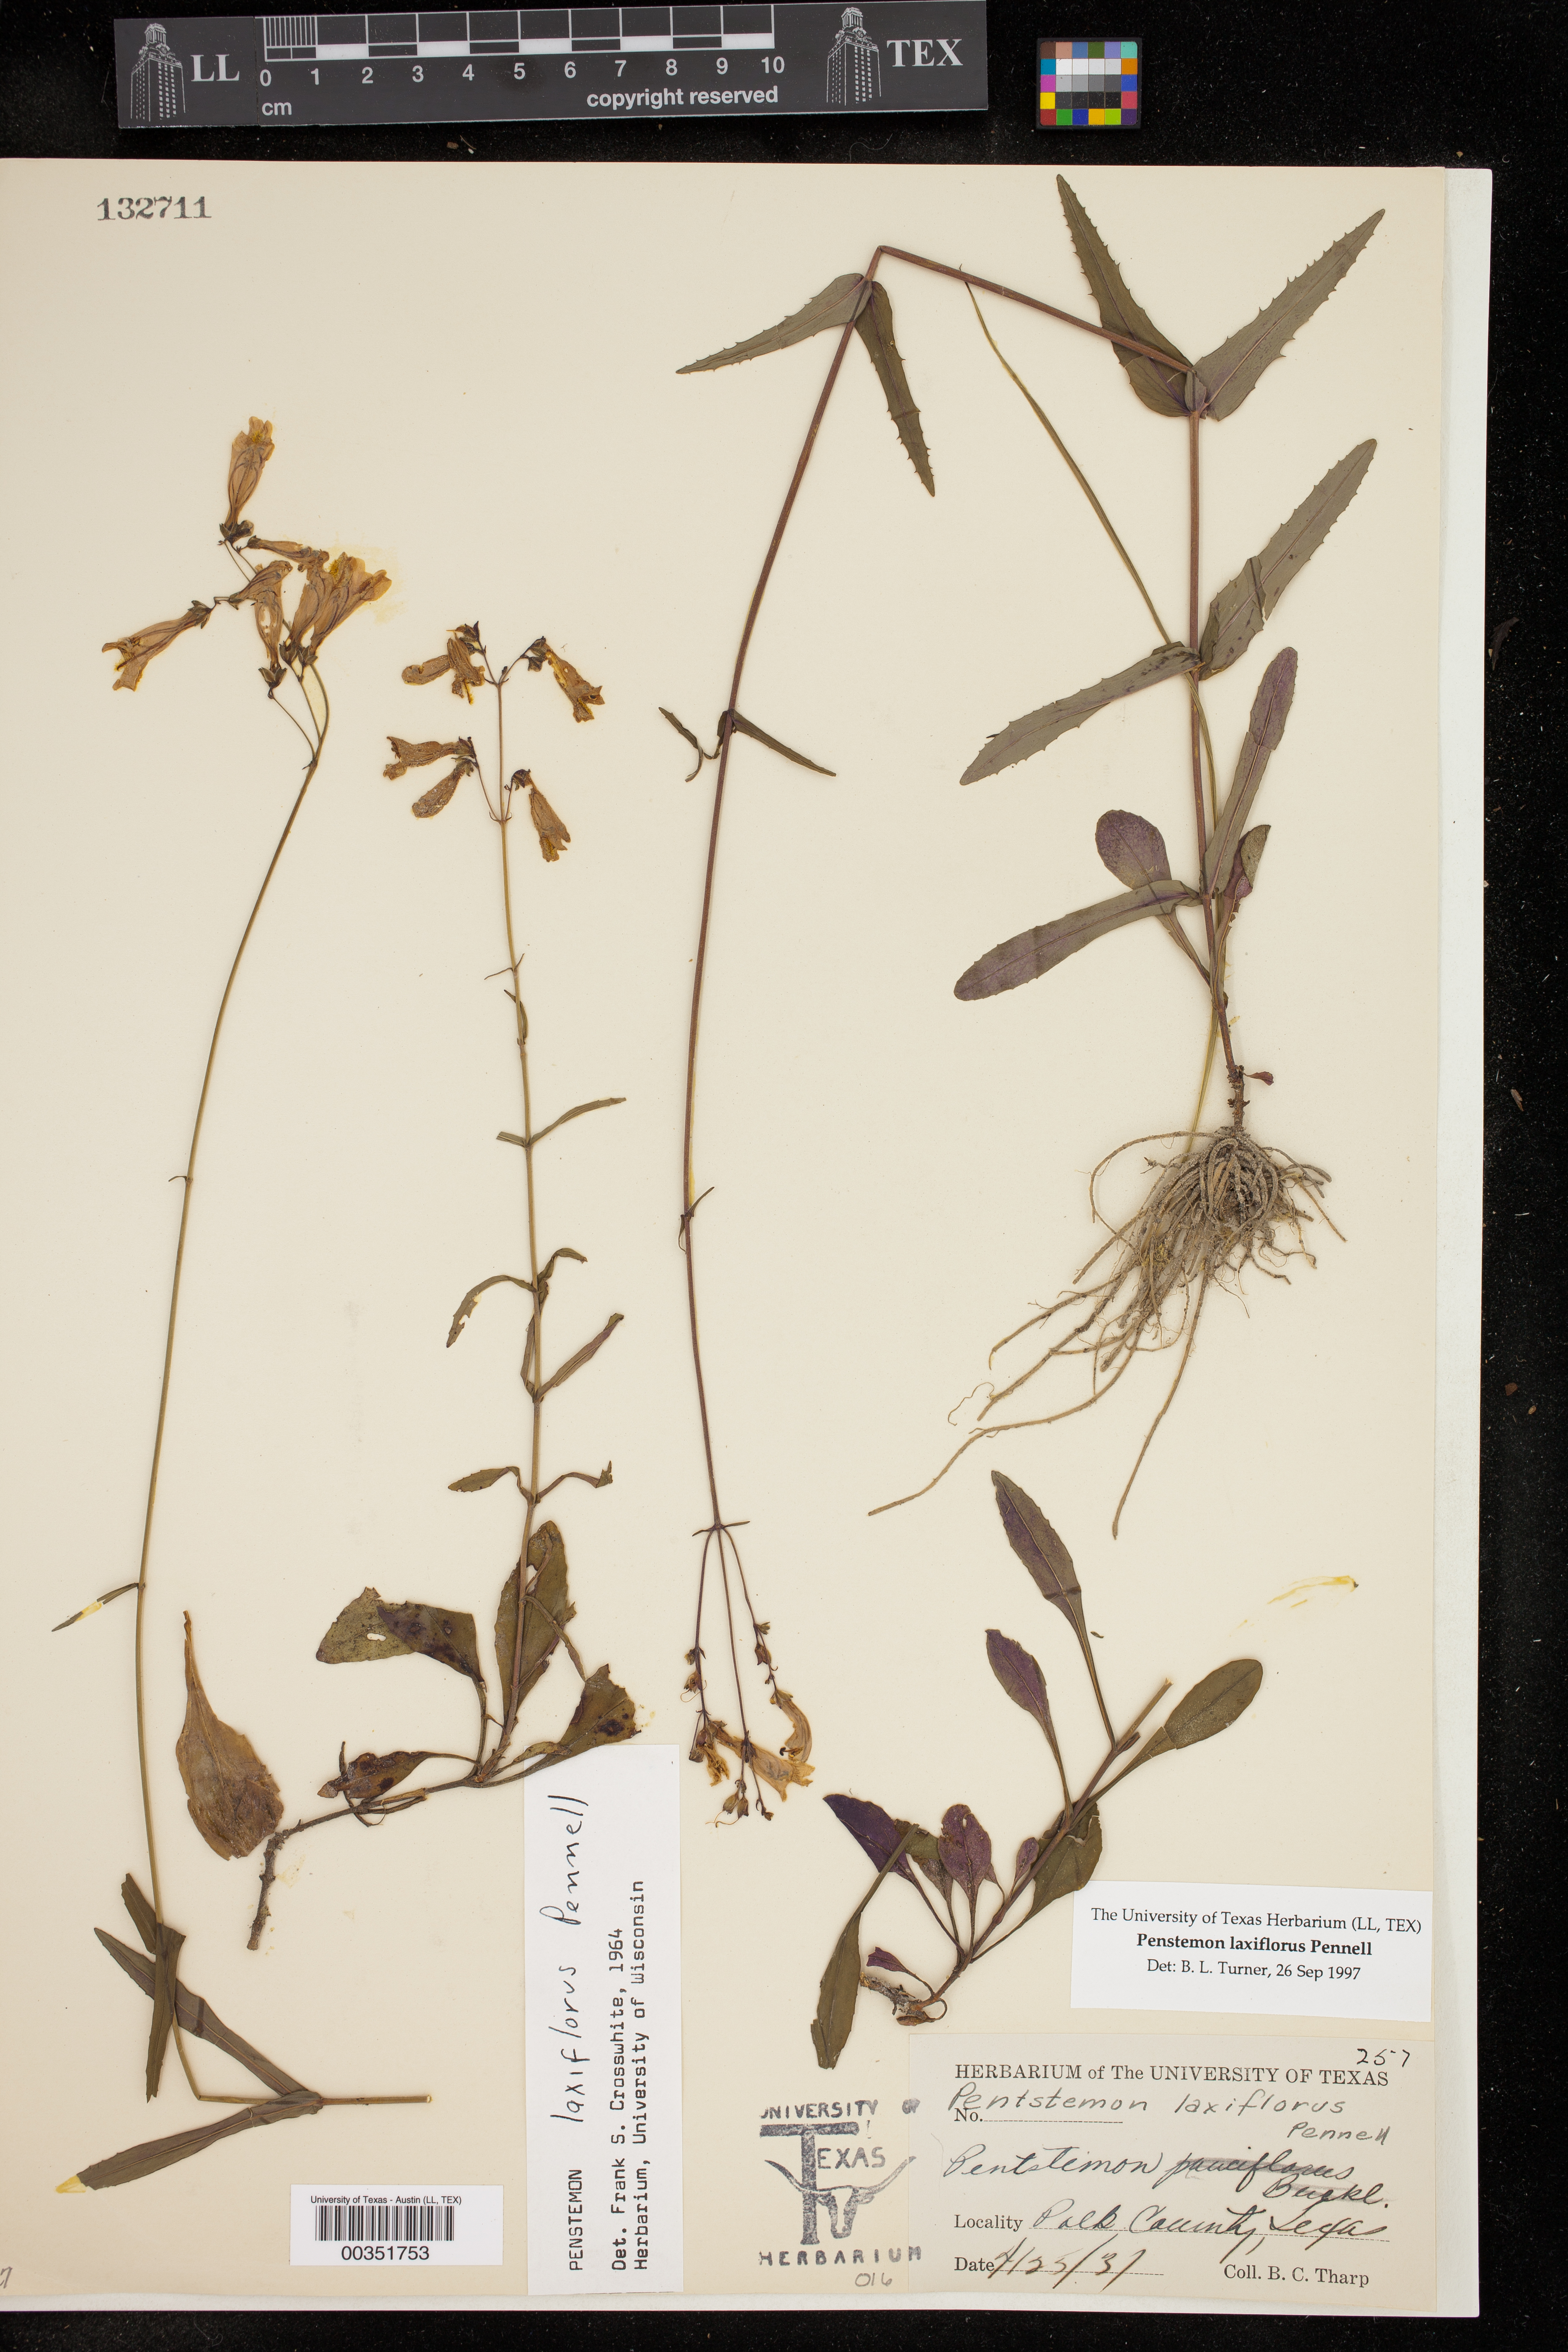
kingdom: Plantae
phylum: Tracheophyta
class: Magnoliopsida
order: Lamiales
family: Plantaginaceae
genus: Penstemon
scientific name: Penstemon laxiflorus
